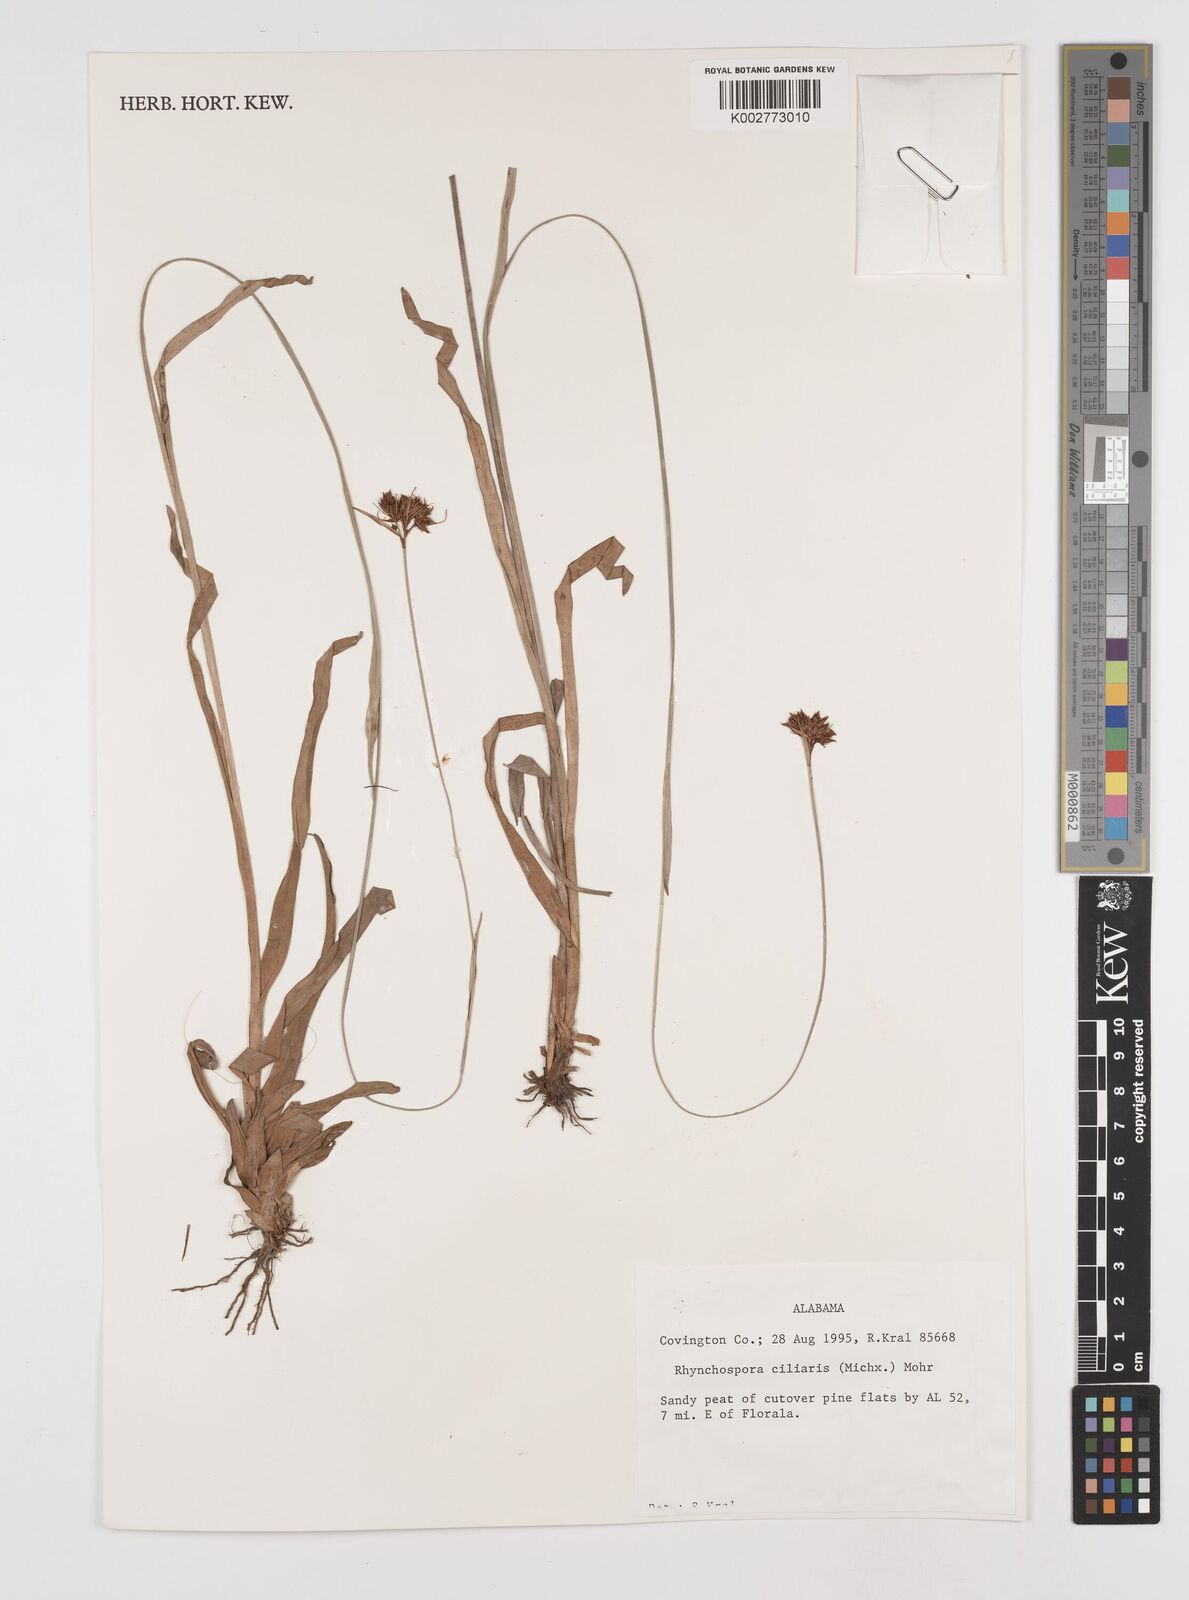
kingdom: Plantae
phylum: Tracheophyta
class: Liliopsida
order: Poales
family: Cyperaceae
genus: Rhynchospora
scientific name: Rhynchospora ciliaris
